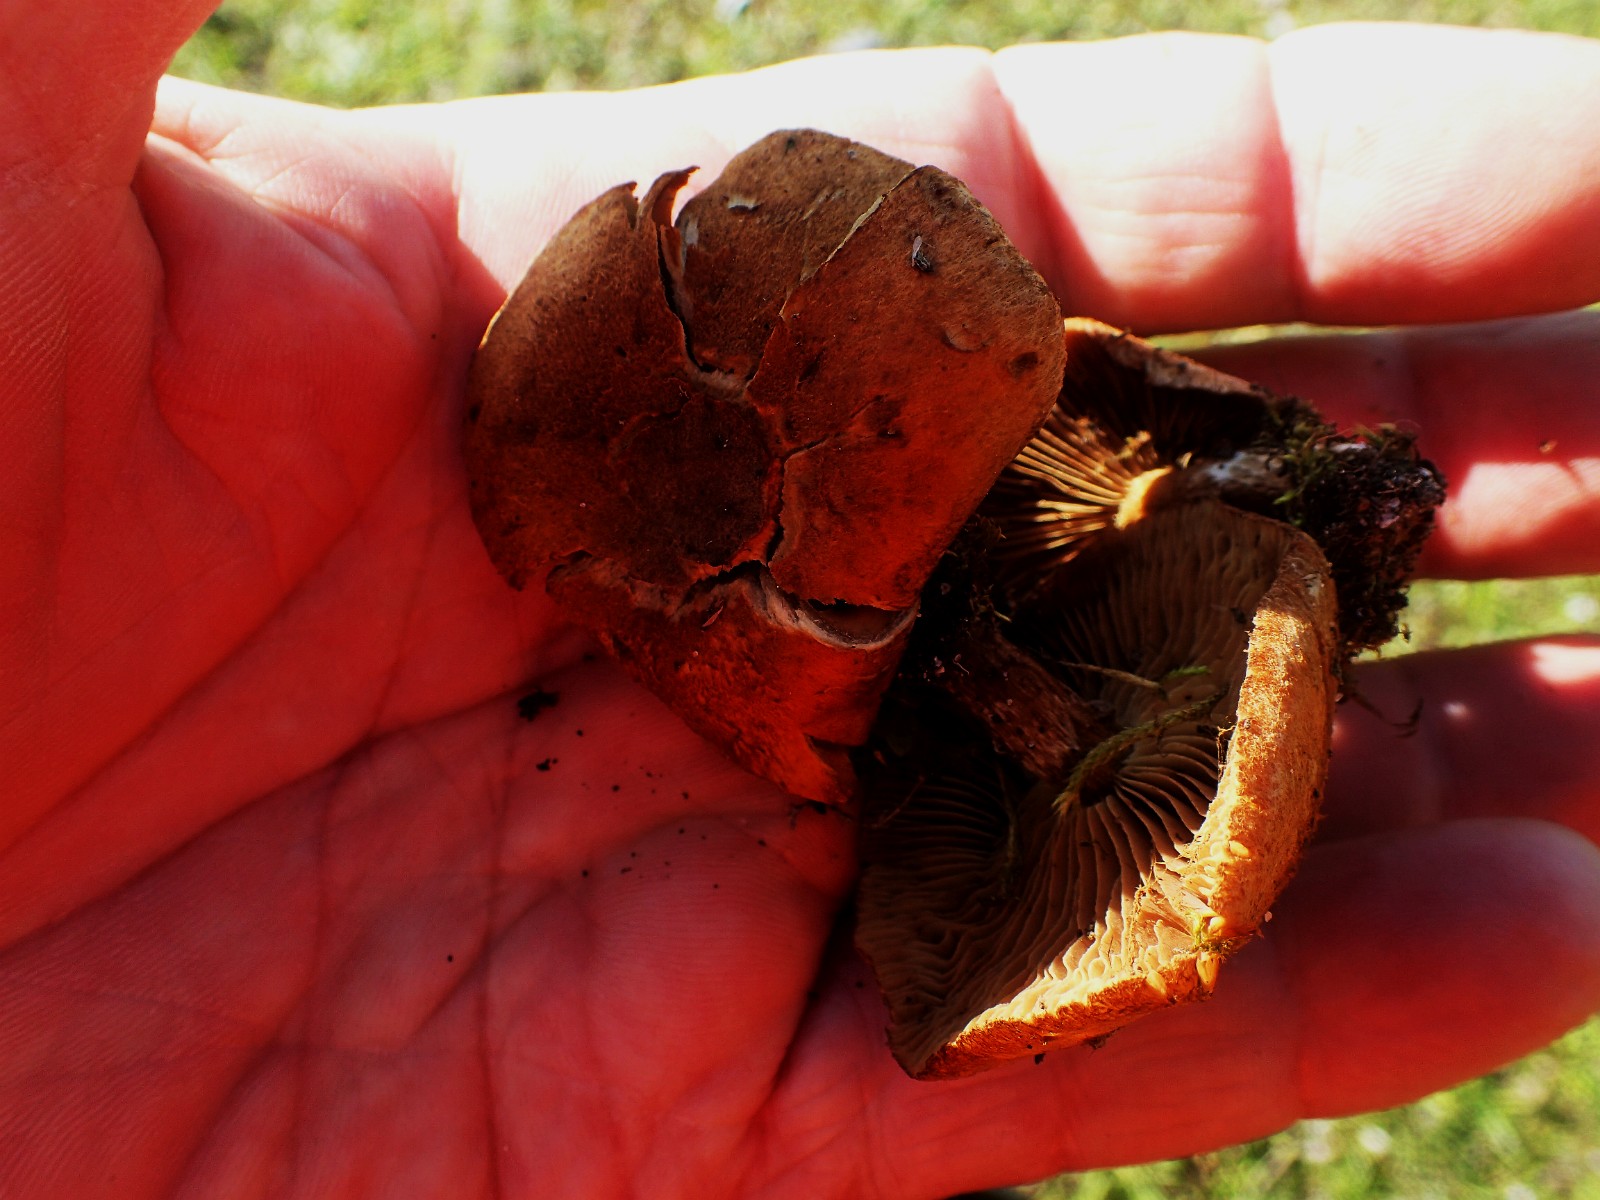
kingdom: Fungi
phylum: Basidiomycota
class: Agaricomycetes
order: Agaricales
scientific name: Agaricales
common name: champignonordenen
